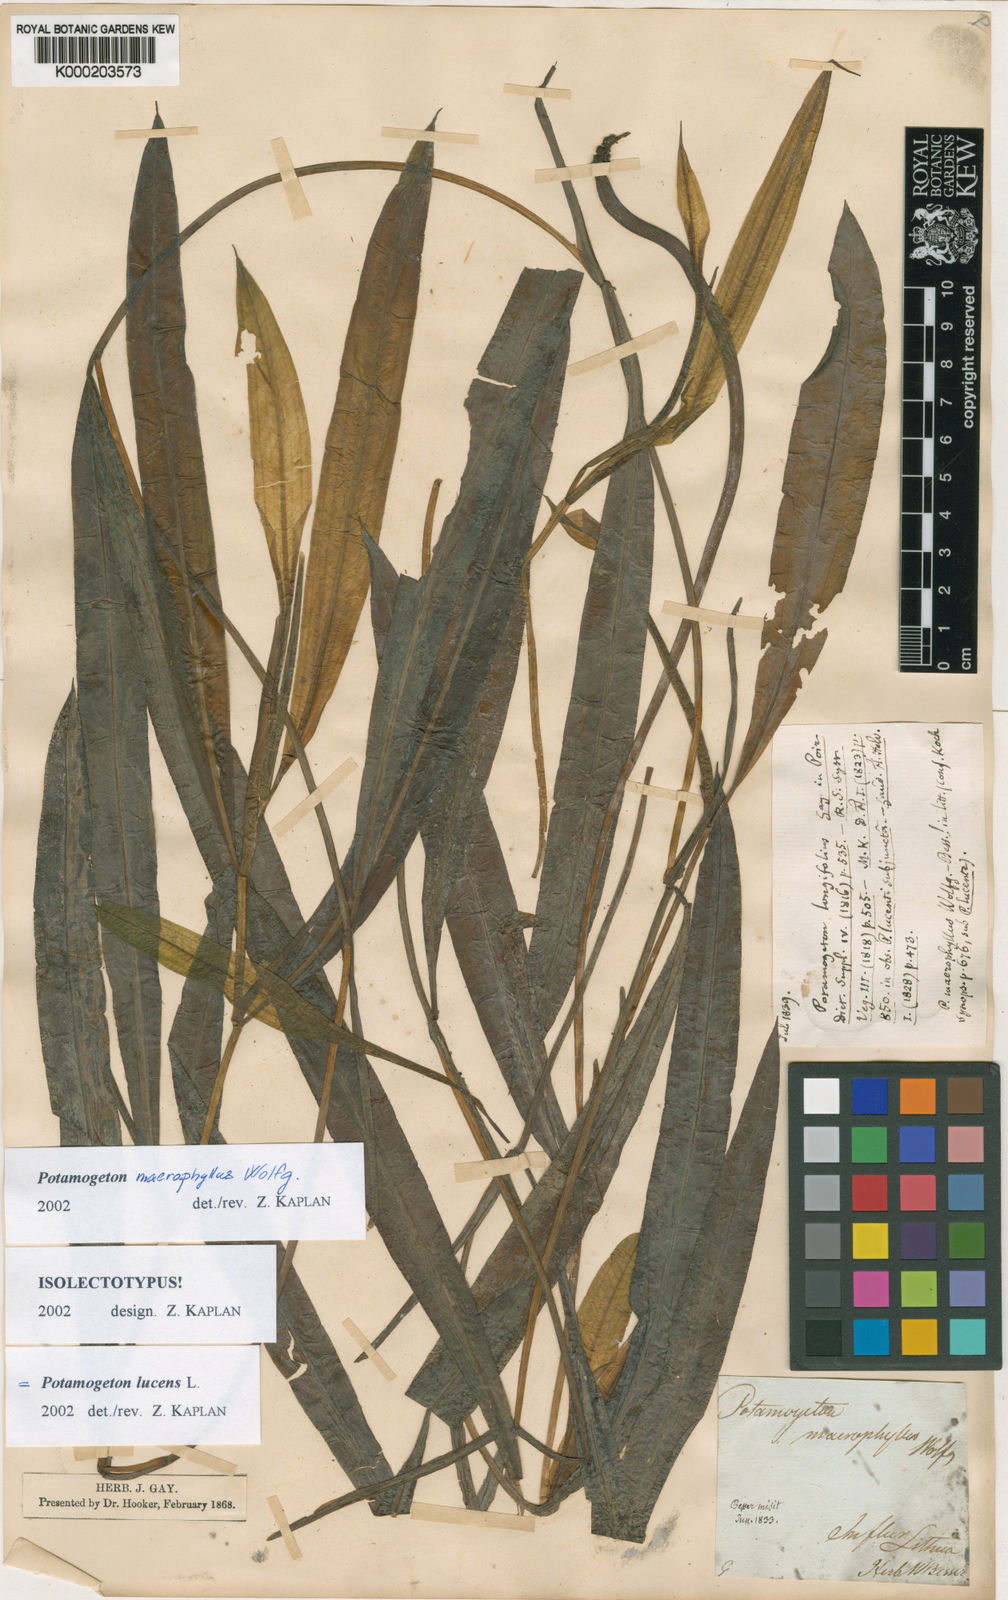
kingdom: Plantae
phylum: Tracheophyta
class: Liliopsida
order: Alismatales
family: Potamogetonaceae
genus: Potamogeton
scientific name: Potamogeton lucens
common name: Shining pondweed
